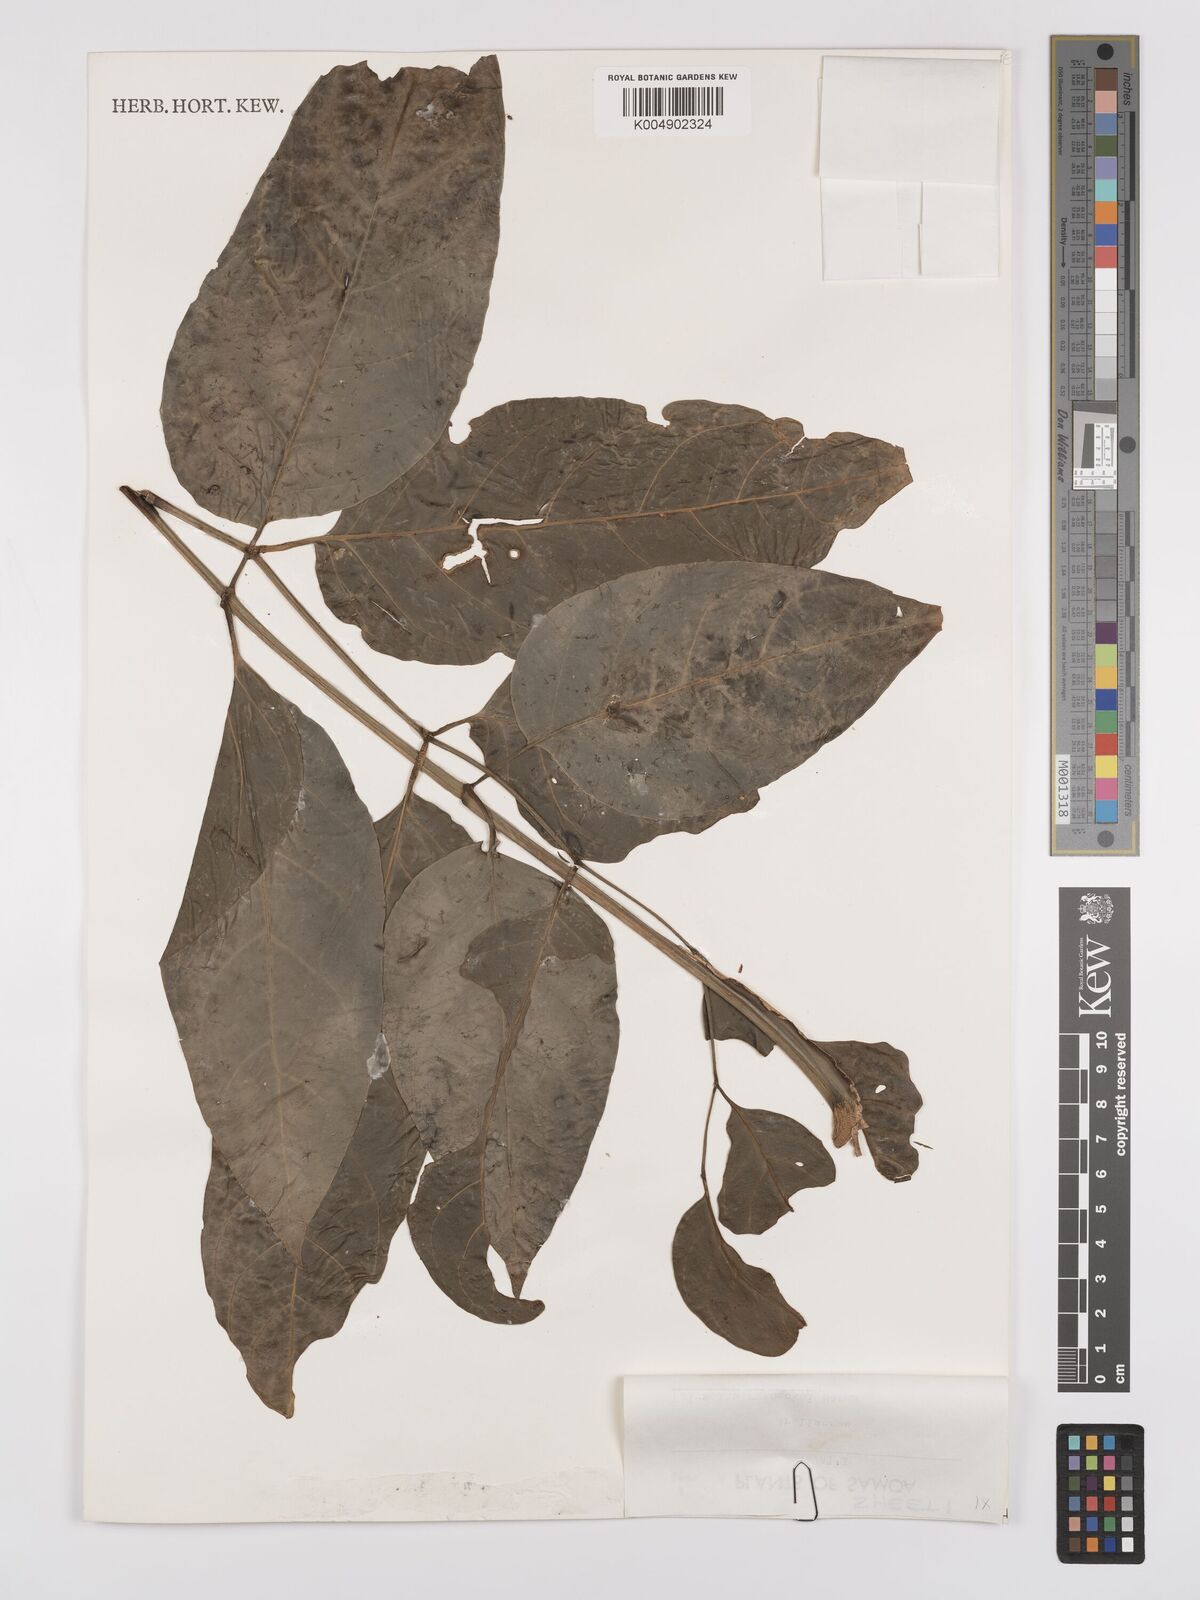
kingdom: Plantae
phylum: Tracheophyta
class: Magnoliopsida
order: Apiales
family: Araliaceae
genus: Polyscias
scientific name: Polyscias reineckei
